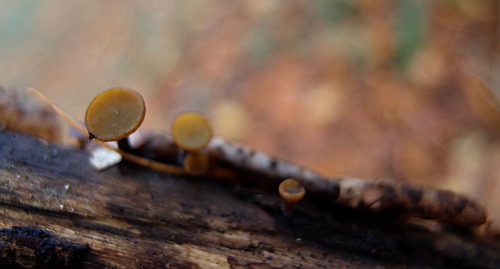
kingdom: Fungi
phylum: Ascomycota
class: Leotiomycetes
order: Helotiales
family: Rutstroemiaceae
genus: Rutstroemia
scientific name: Rutstroemia firma
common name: gren-brunskive
